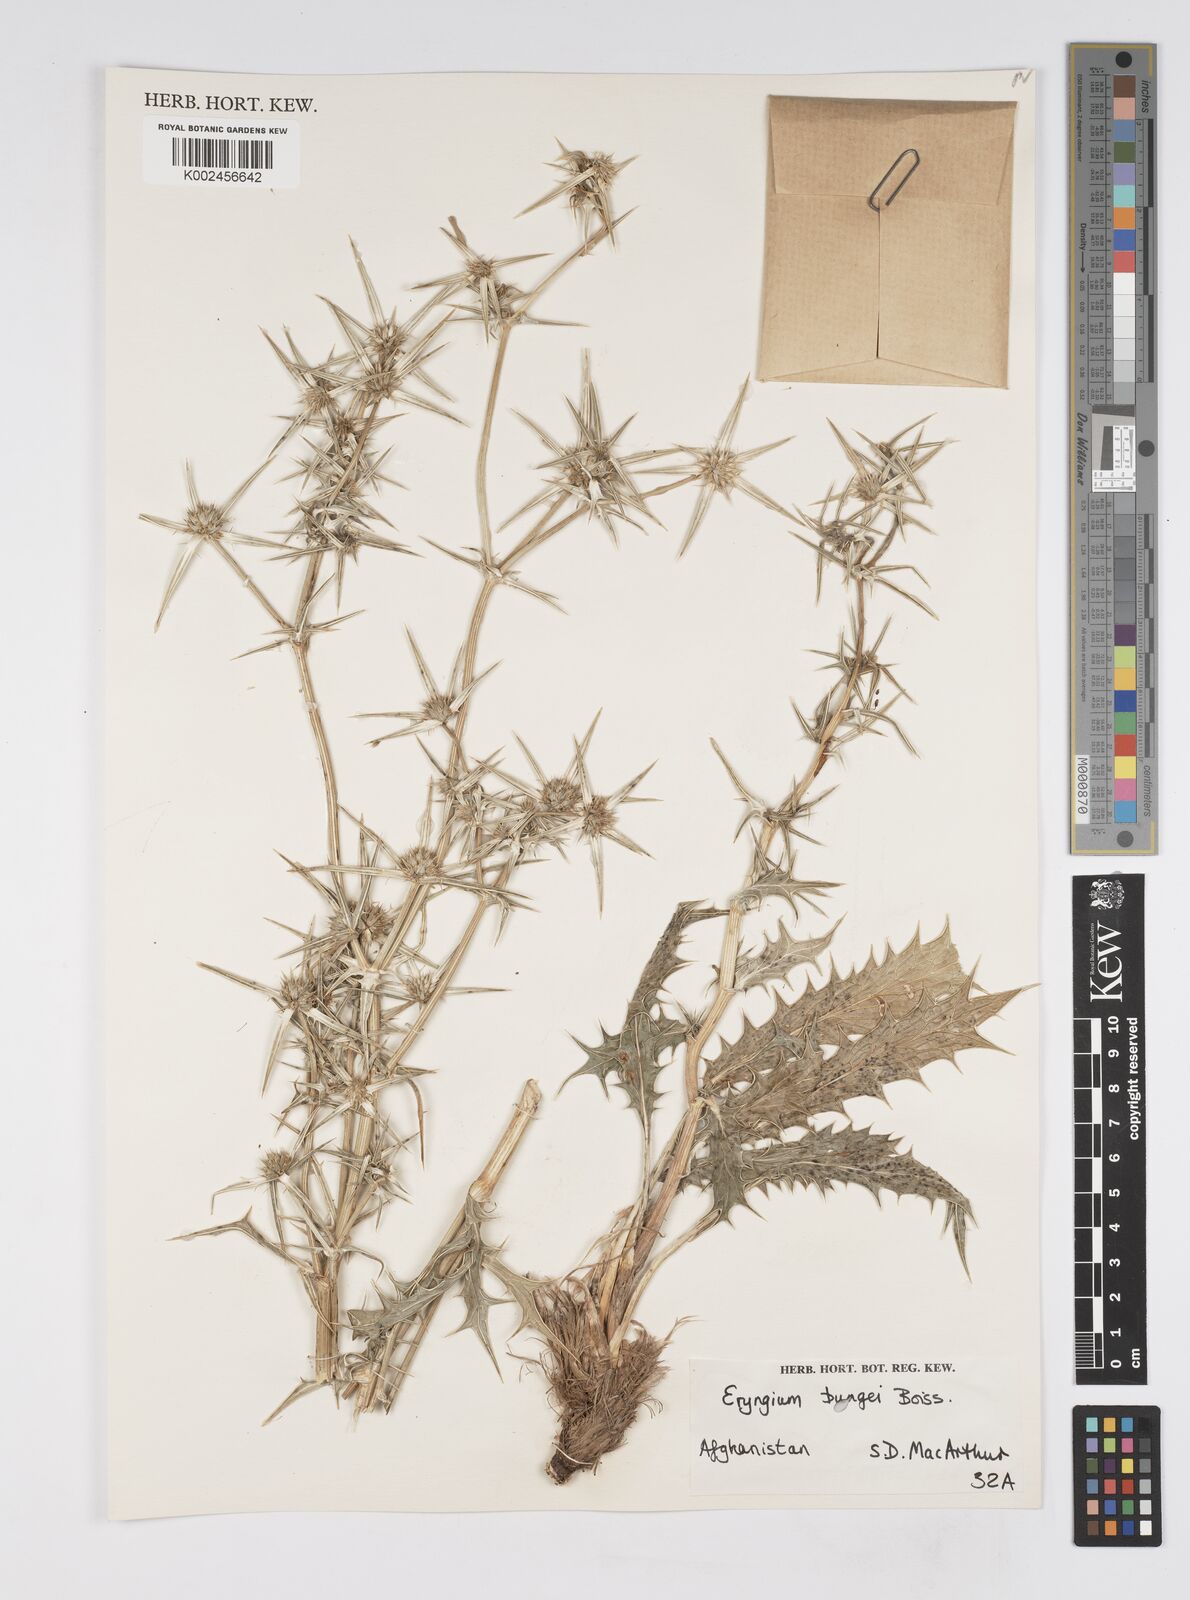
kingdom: Plantae
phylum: Tracheophyta
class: Magnoliopsida
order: Apiales
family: Apiaceae
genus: Eryngium
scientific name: Eryngium bungei
